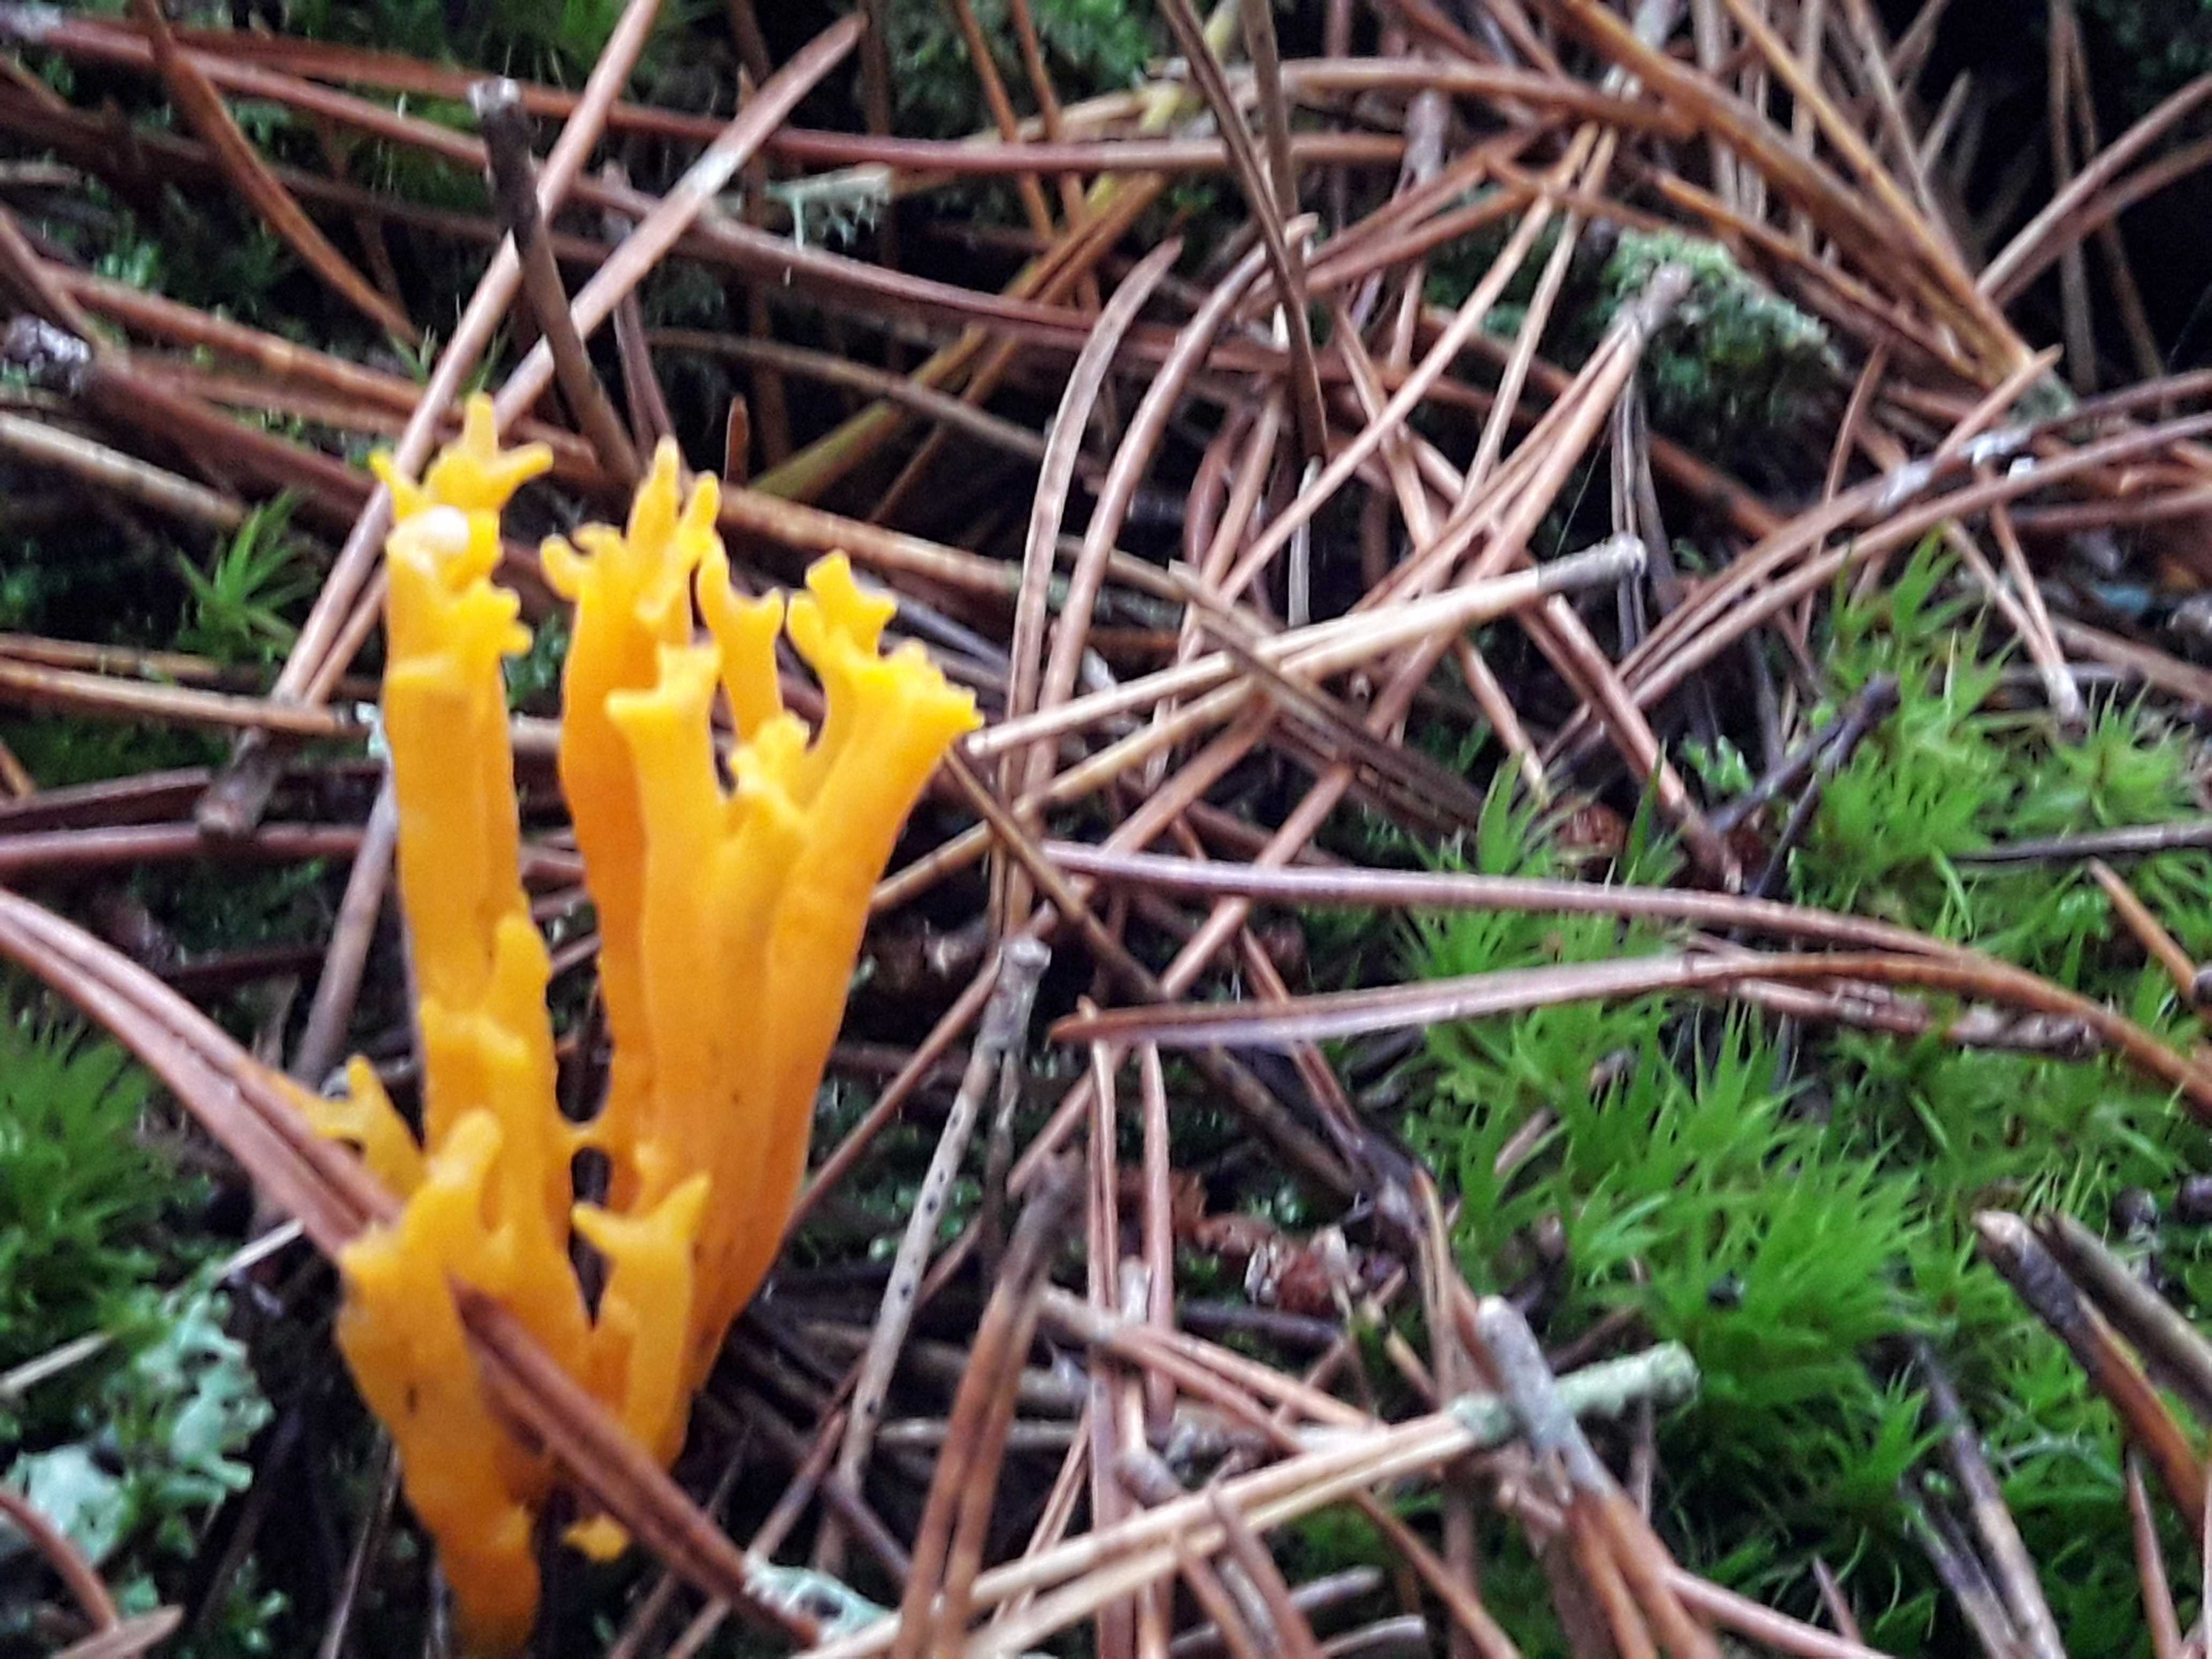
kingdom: Fungi
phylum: Basidiomycota
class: Dacrymycetes
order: Dacrymycetales
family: Dacrymycetaceae
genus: Calocera
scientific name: Calocera viscosa
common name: almindelig guldgaffel
